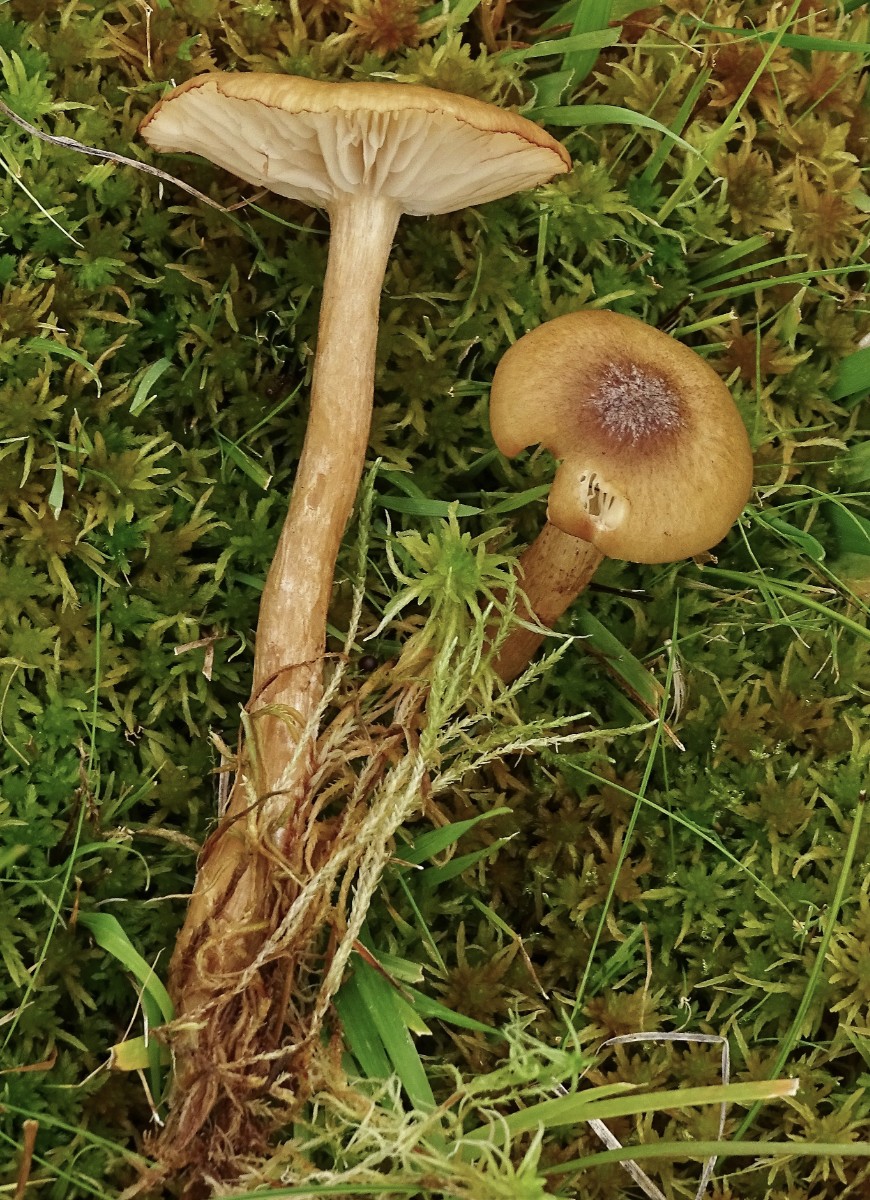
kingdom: Fungi
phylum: Basidiomycota
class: Agaricomycetes
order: Agaricales
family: Physalacriaceae
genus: Desarmillaria
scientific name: Desarmillaria ectypa
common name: ringløs honningsvamp
